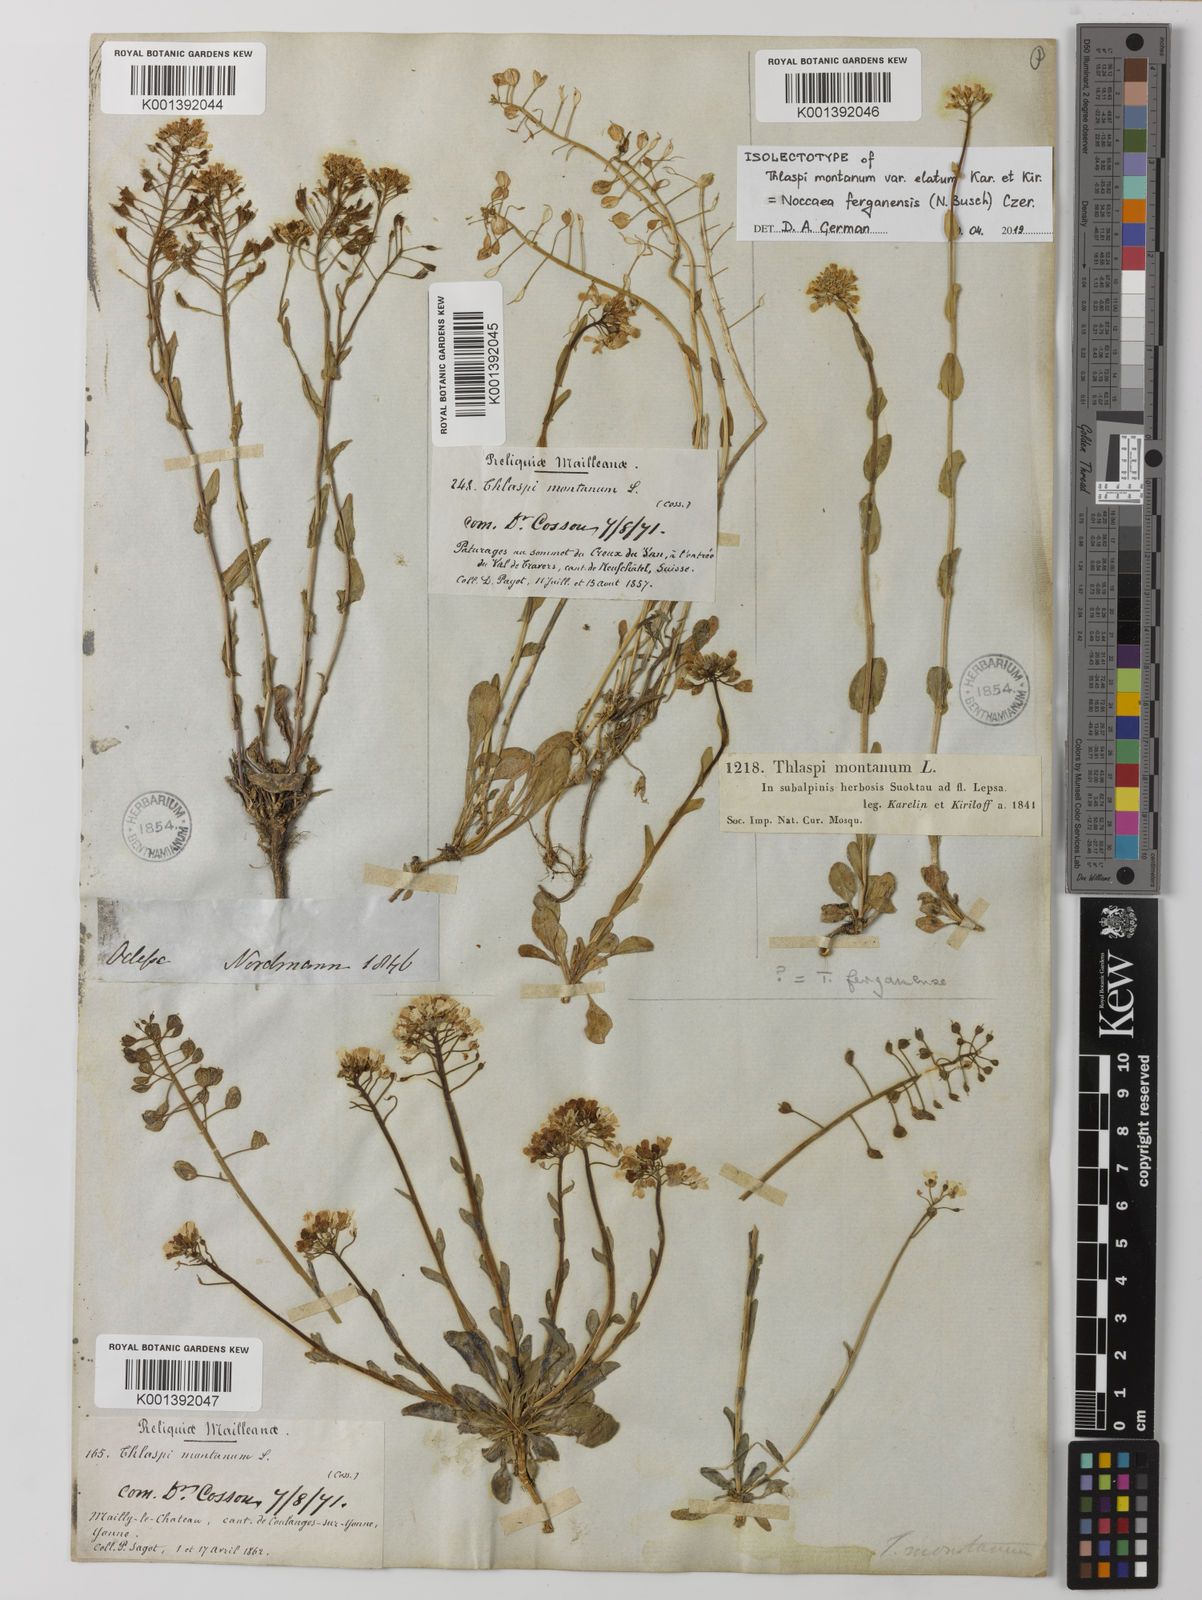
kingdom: Plantae
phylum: Tracheophyta
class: Magnoliopsida
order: Brassicales
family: Brassicaceae
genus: Noccaea
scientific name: Noccaea montana
